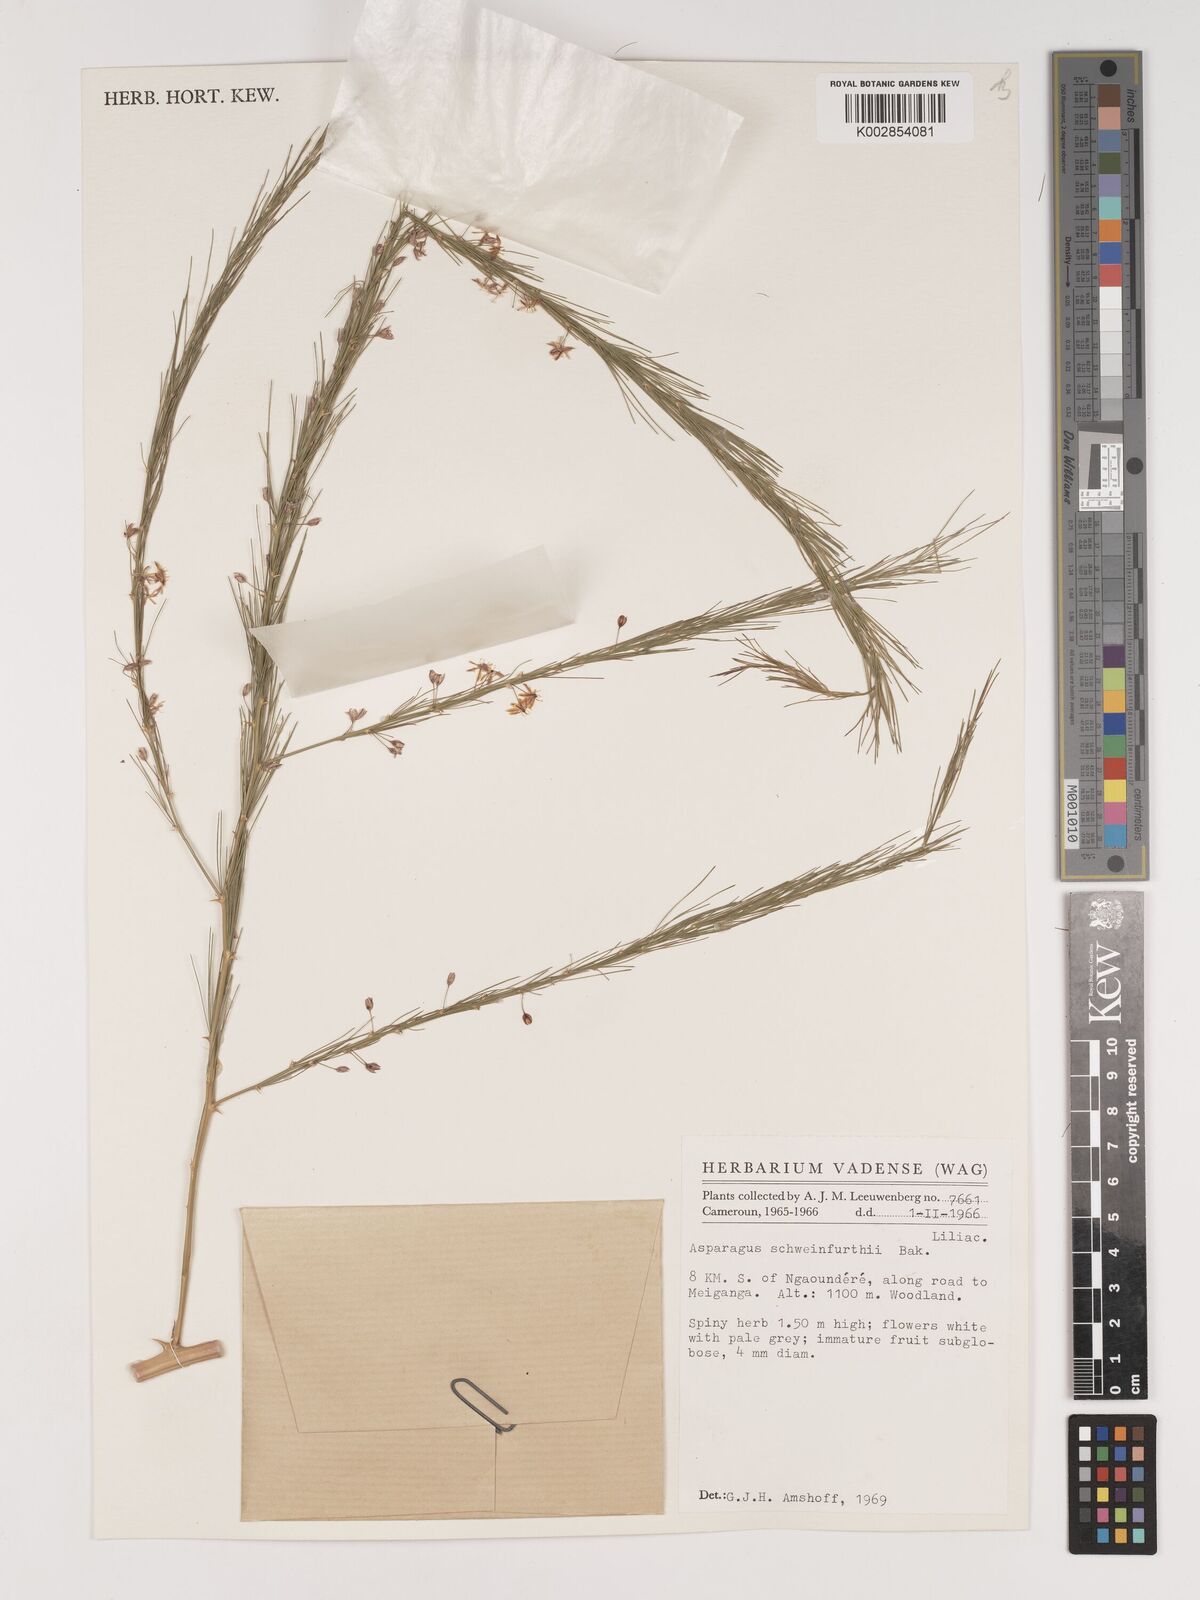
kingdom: Plantae
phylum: Tracheophyta
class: Liliopsida
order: Asparagales
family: Asparagaceae
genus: Asparagus
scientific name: Asparagus flagellaris
